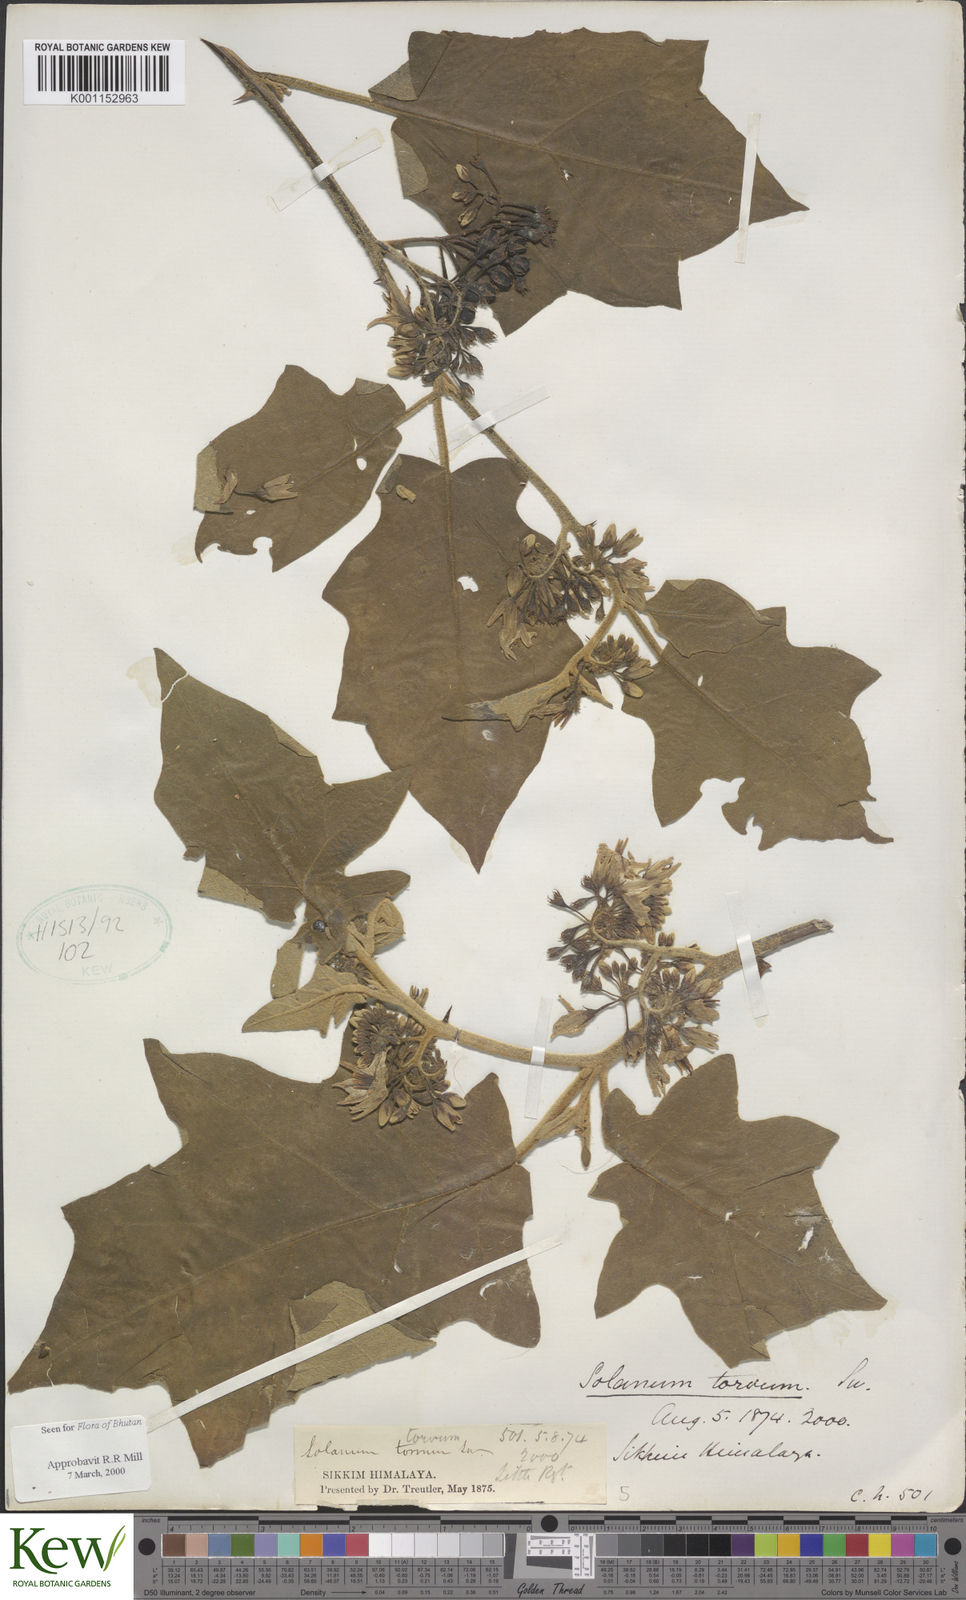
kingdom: Plantae
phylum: Tracheophyta
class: Magnoliopsida
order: Solanales
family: Solanaceae
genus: Solanum
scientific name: Solanum torvum
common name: Turkey berry
